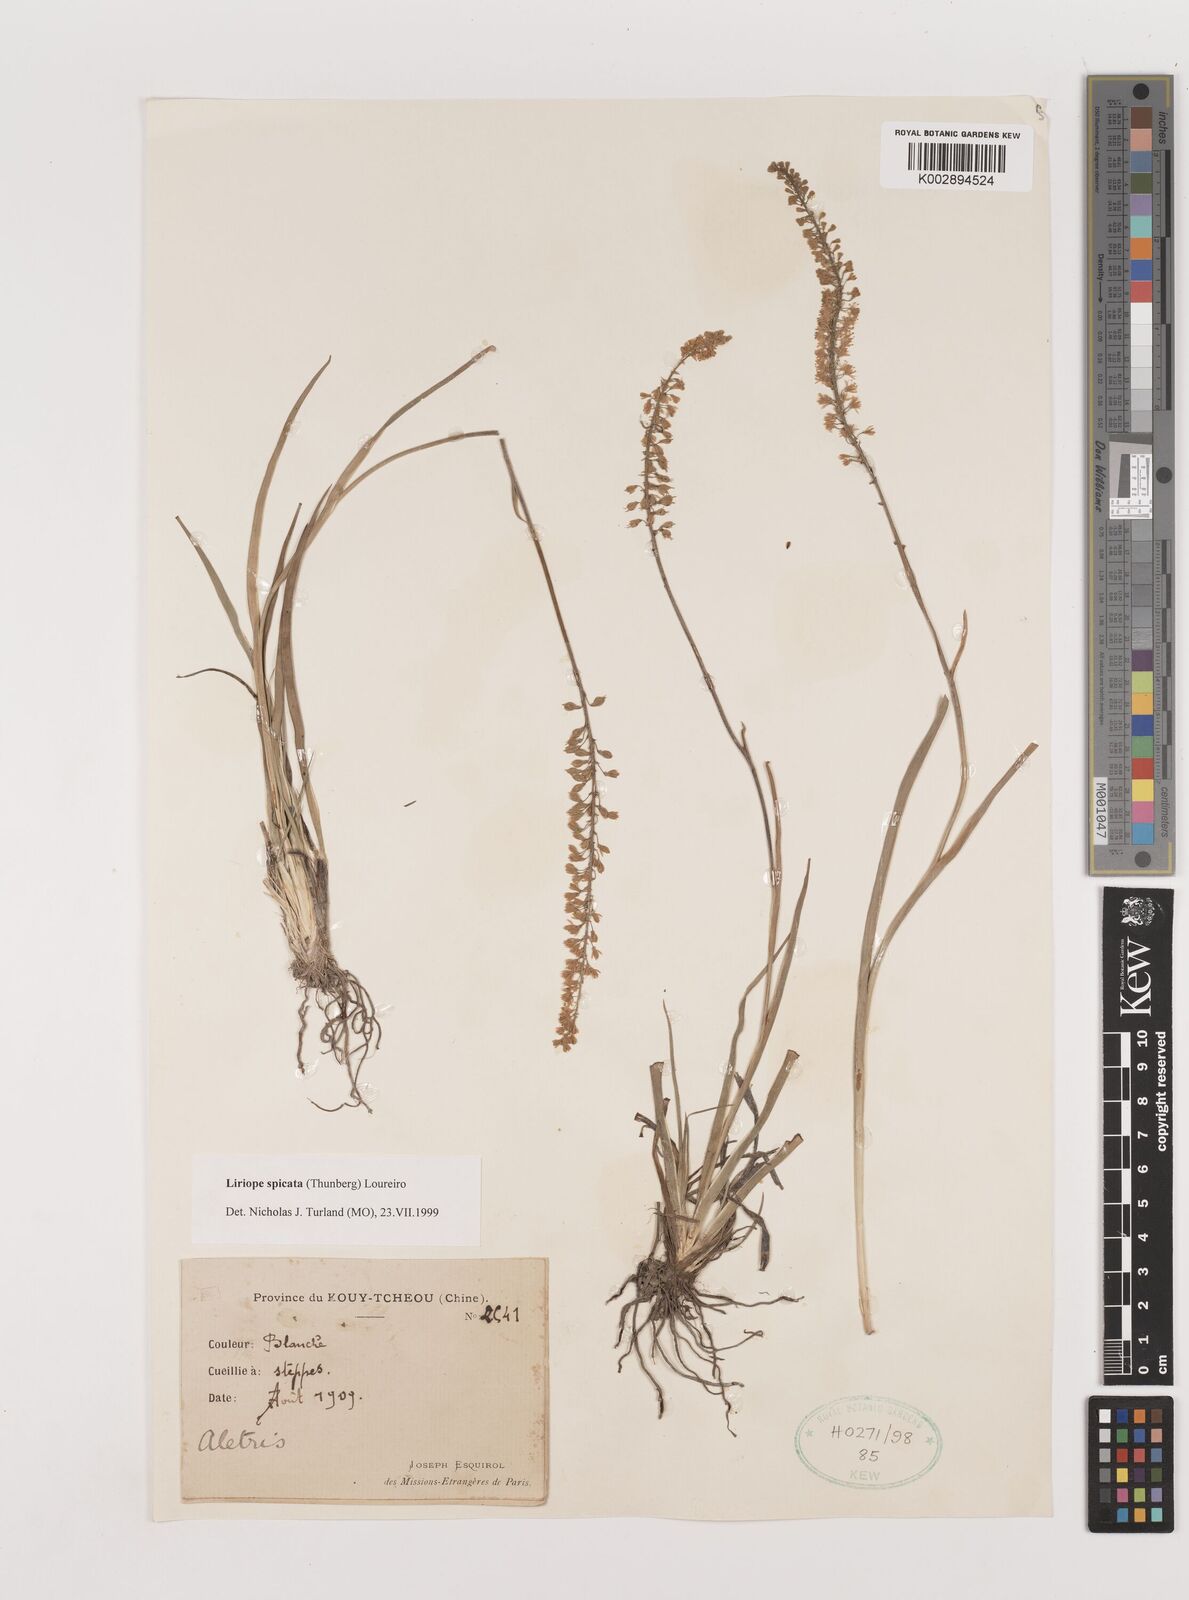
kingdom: Plantae
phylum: Tracheophyta
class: Liliopsida
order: Asparagales
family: Asparagaceae
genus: Liriope
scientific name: Liriope spicata
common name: Creeping liriope
